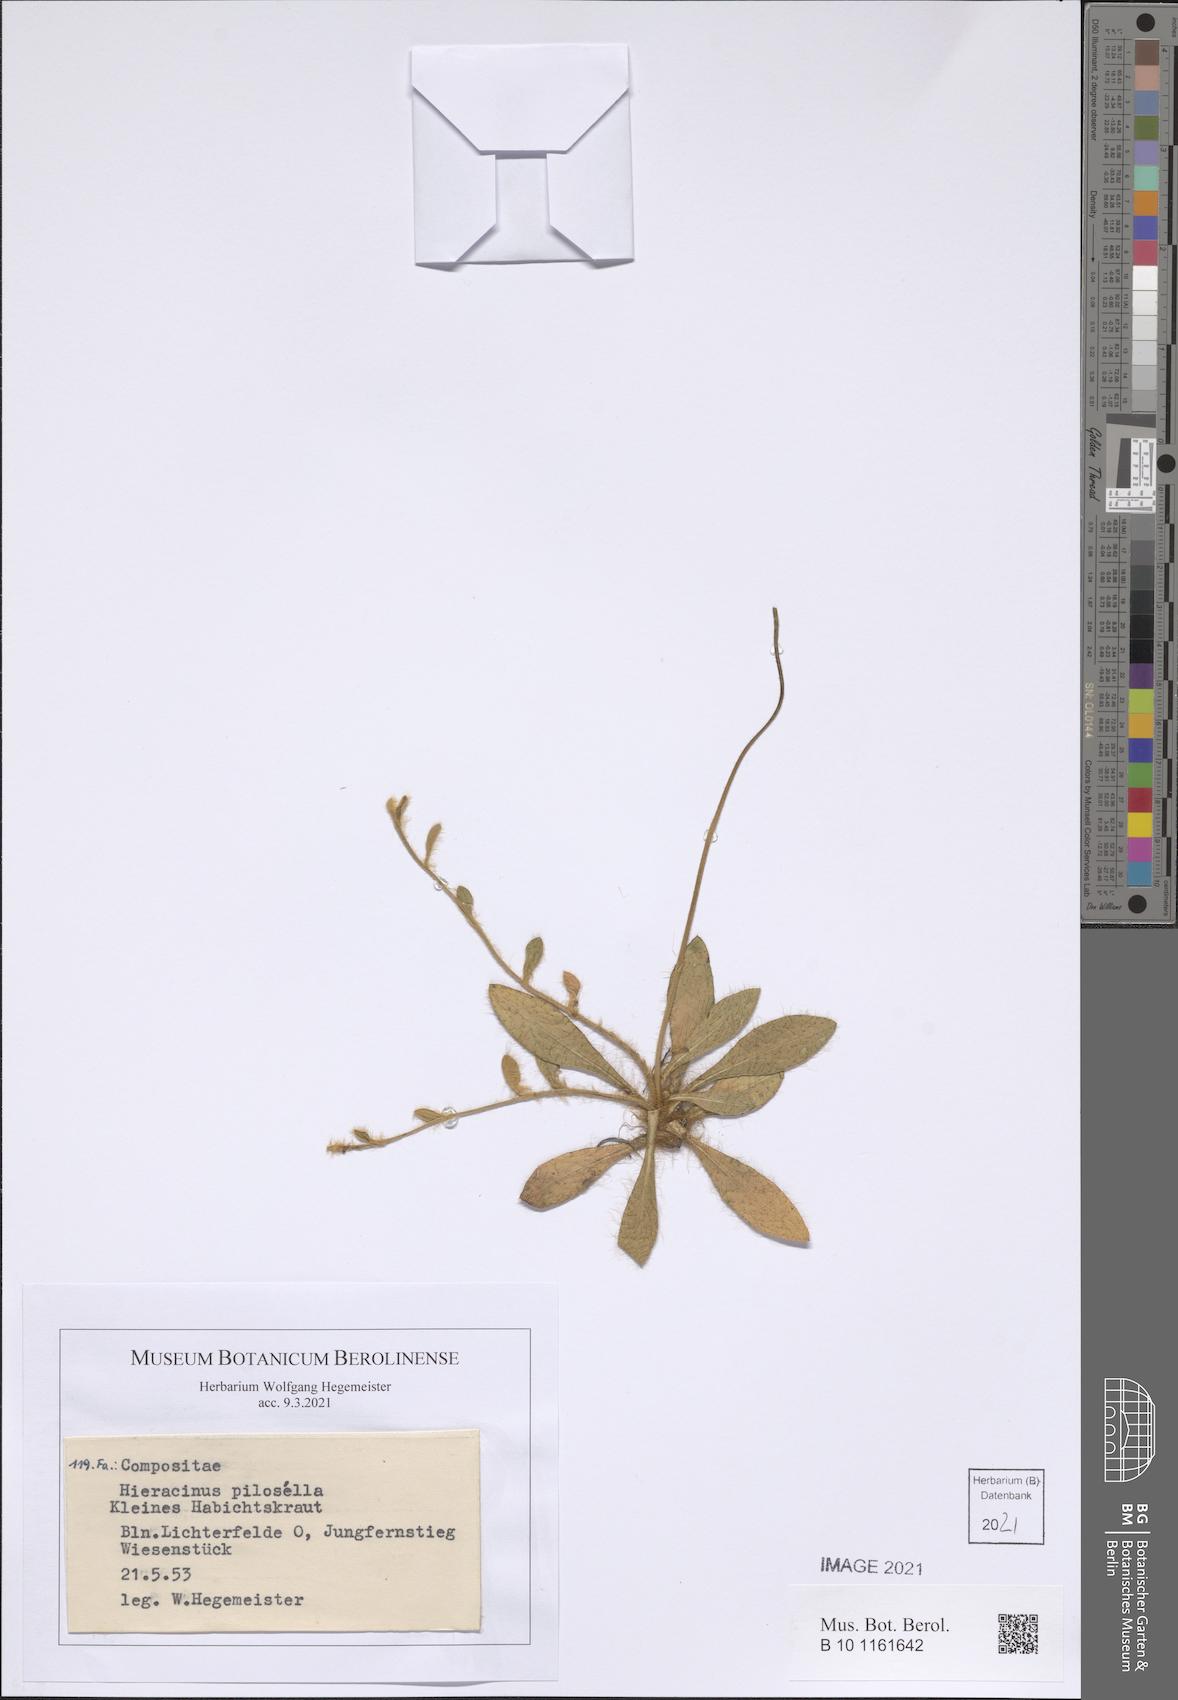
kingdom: Plantae
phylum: Tracheophyta
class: Magnoliopsida
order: Asterales
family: Asteraceae
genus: Pilosella
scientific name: Pilosella officinarum
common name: Mouse-ear hawkweed
